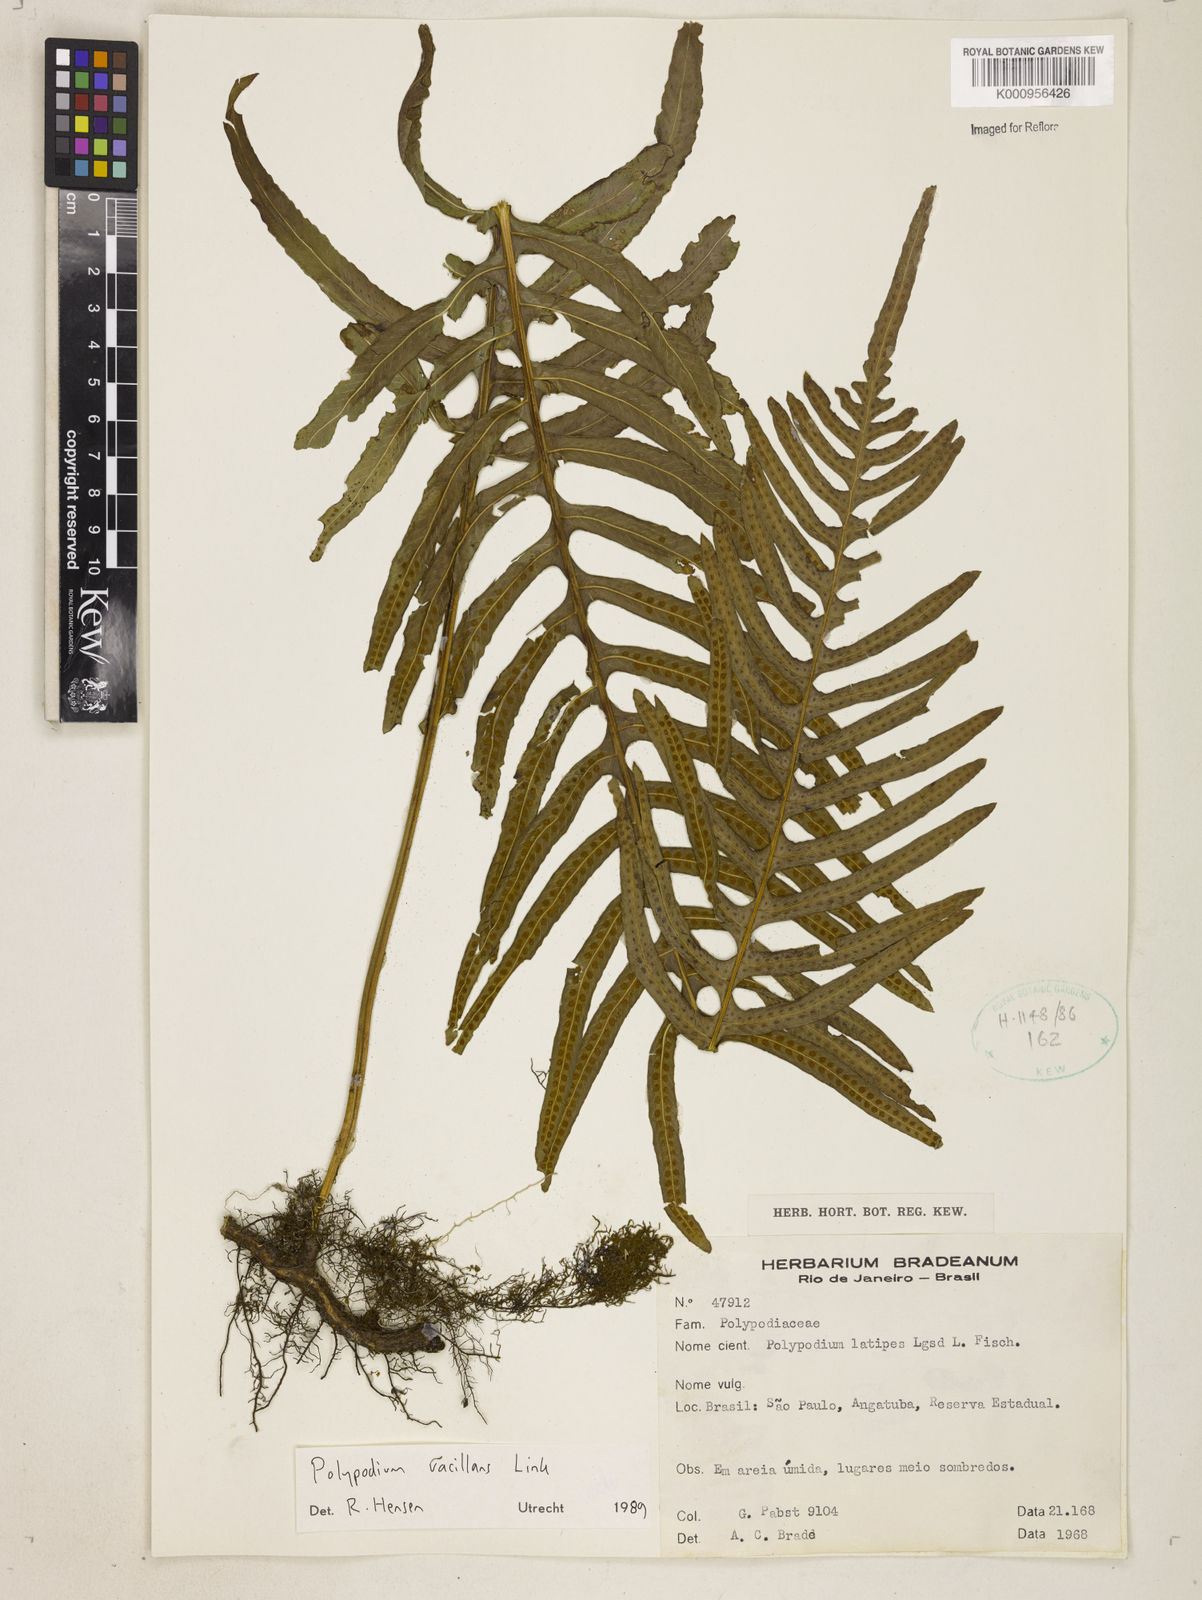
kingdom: Plantae
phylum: Tracheophyta
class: Polypodiopsida
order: Polypodiales
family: Polypodiaceae
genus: Serpocaulon
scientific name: Serpocaulon vacillans
